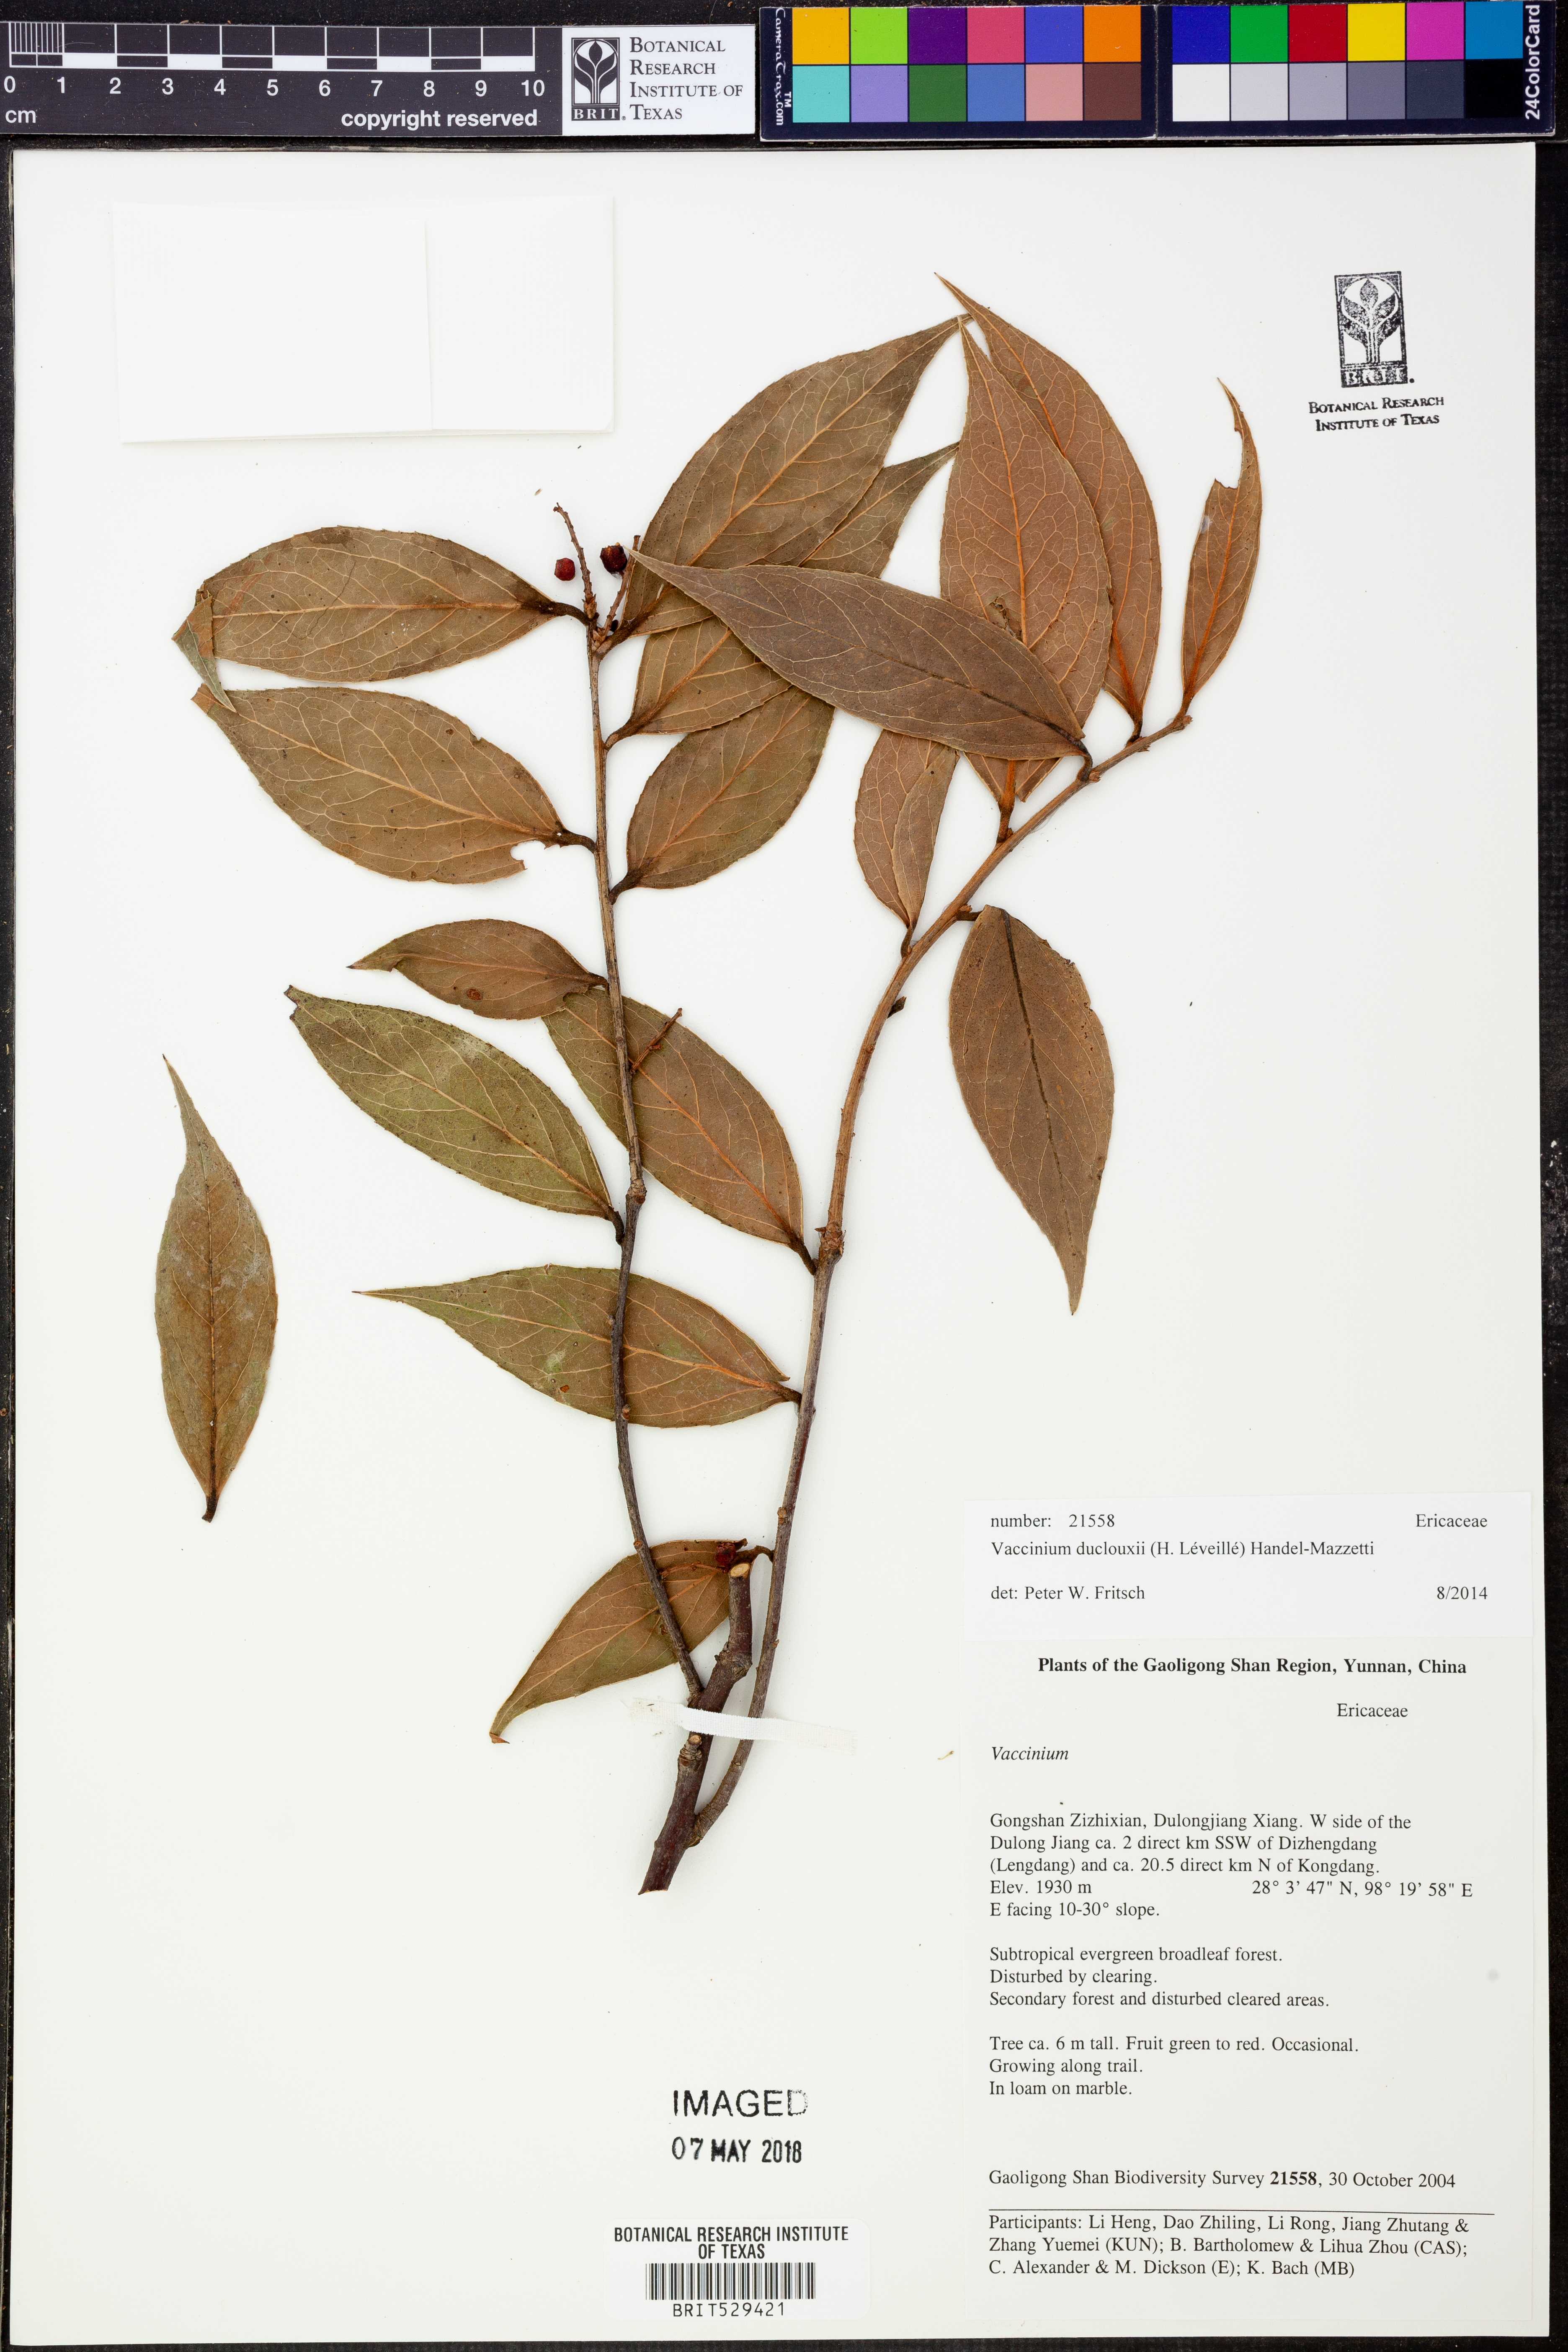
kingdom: Plantae
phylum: Tracheophyta
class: Magnoliopsida
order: Ericales
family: Ericaceae
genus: Vaccinium
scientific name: Vaccinium duclouxii
